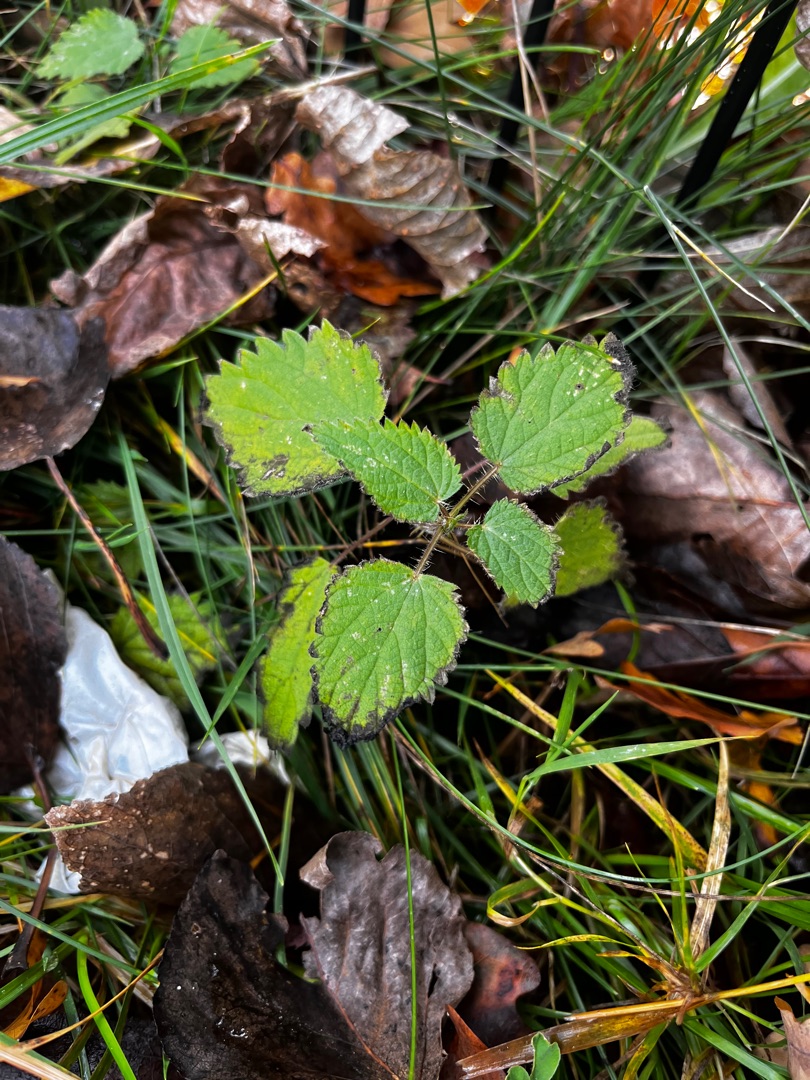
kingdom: Plantae
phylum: Tracheophyta
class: Magnoliopsida
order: Rosales
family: Urticaceae
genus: Urtica
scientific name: Urtica dioica
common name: Stor nælde
